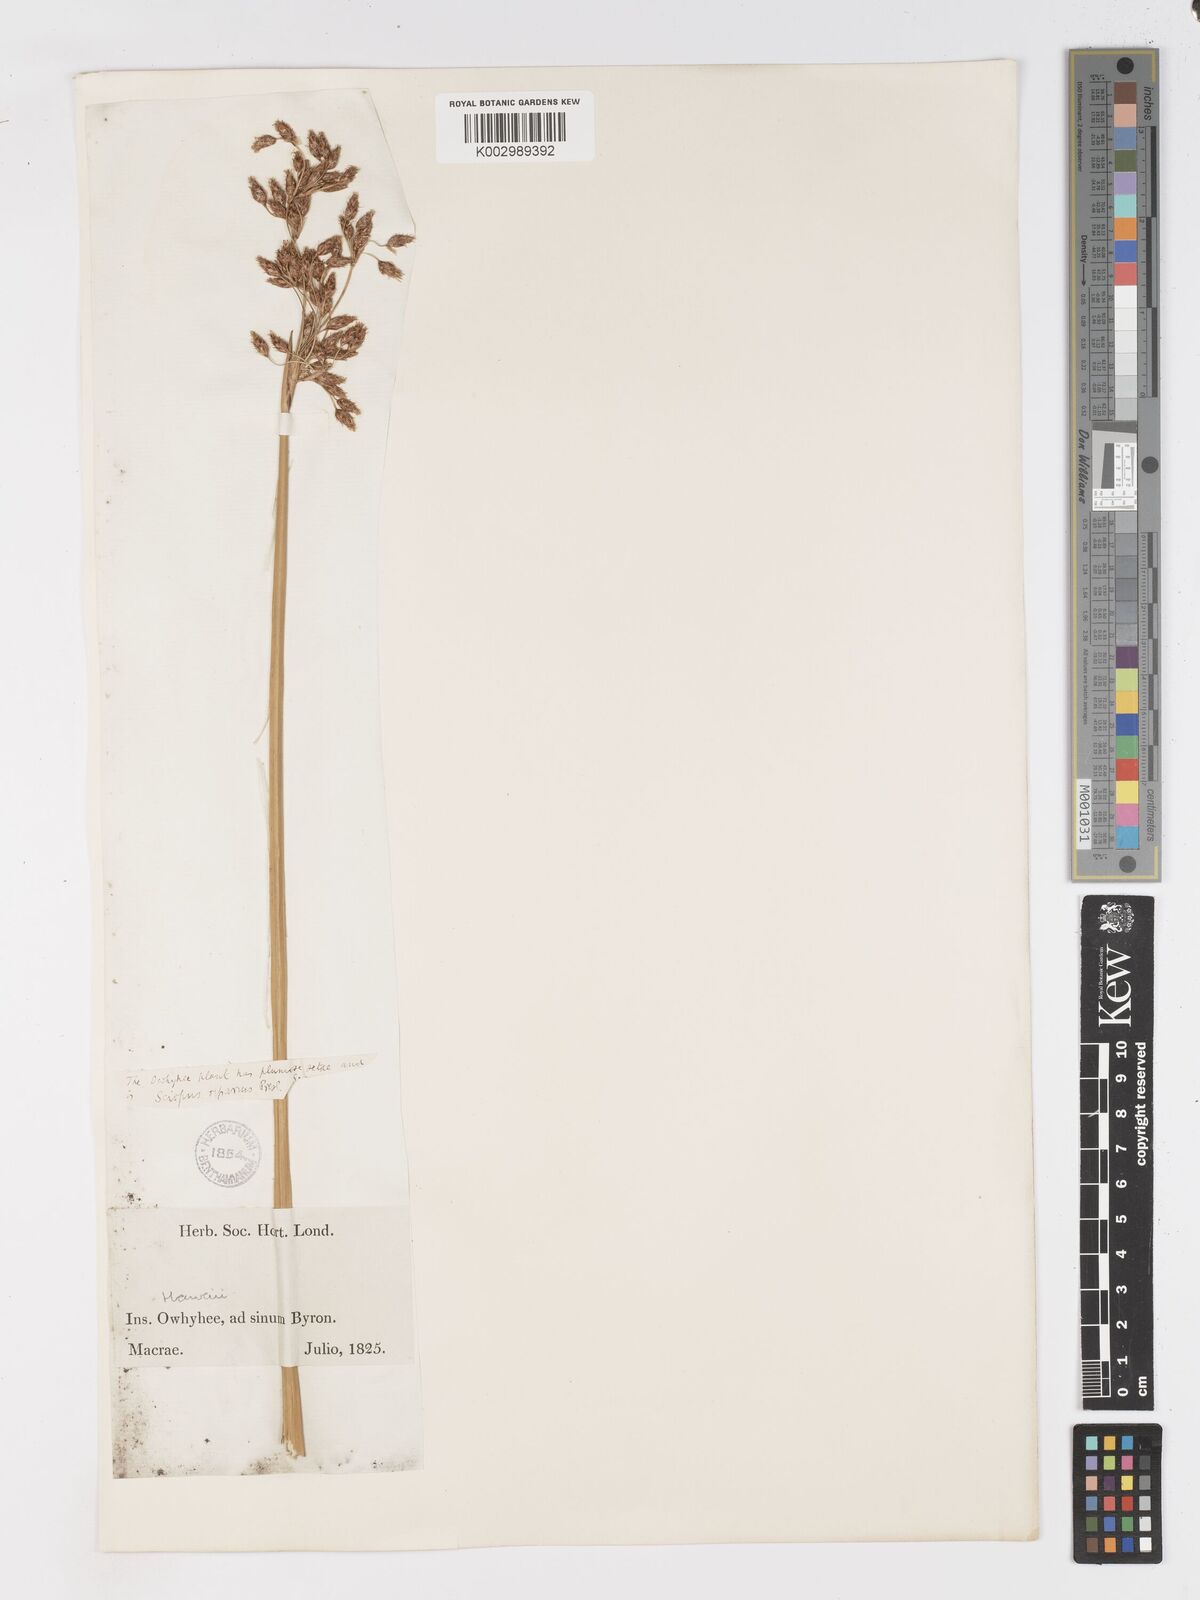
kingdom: Plantae
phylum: Tracheophyta
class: Liliopsida
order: Poales
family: Cyperaceae
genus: Schoenoplectus
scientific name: Schoenoplectus californicus
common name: California bulrush
